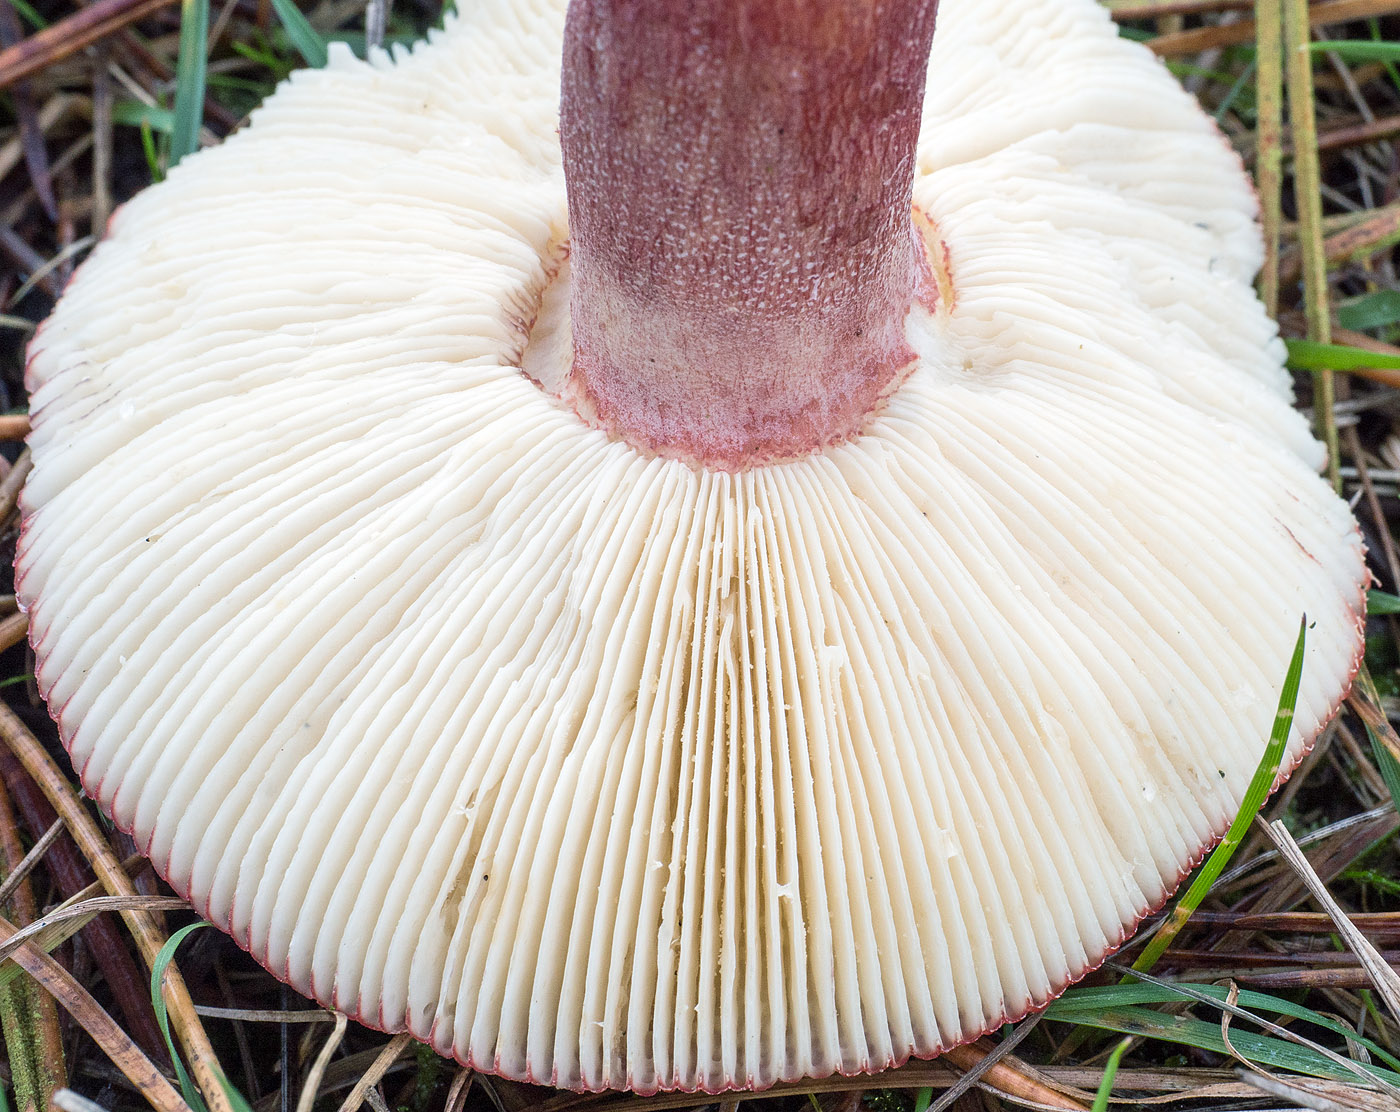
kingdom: Fungi
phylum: Basidiomycota
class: Agaricomycetes
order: Russulales
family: Russulaceae
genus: Russula
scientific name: Russula sanguinea
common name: blodrød skørhat
